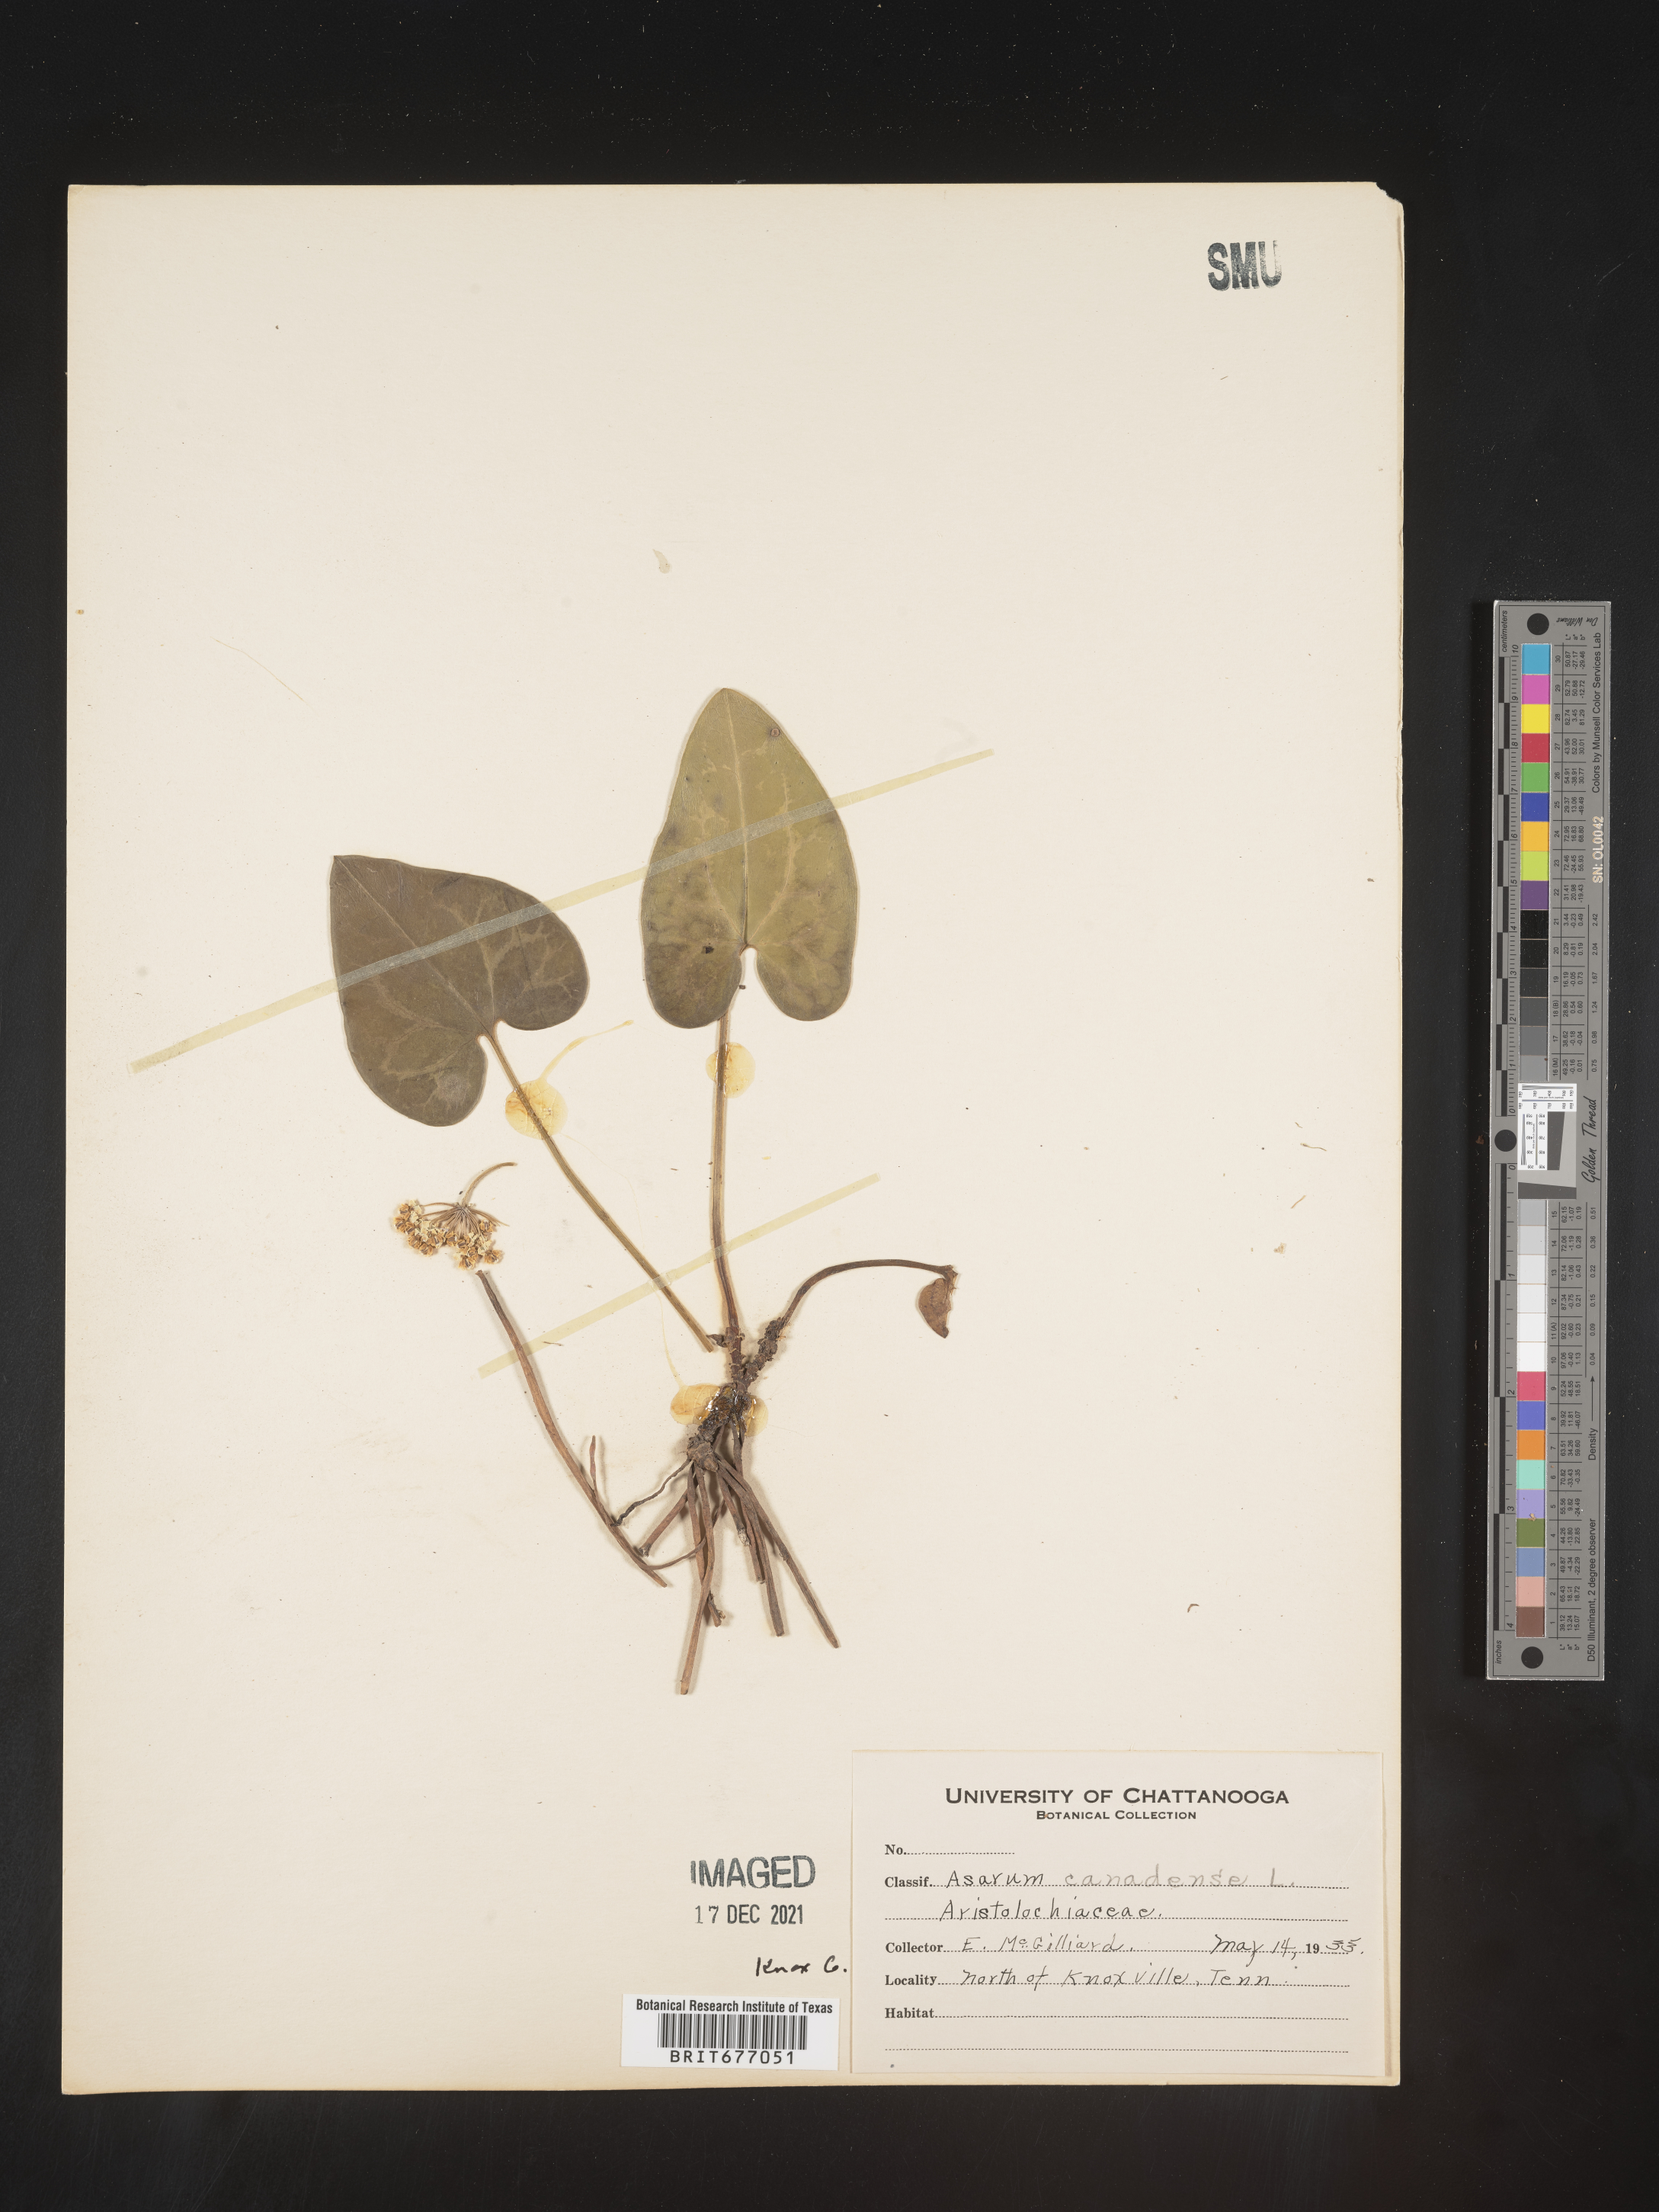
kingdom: Plantae
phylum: Tracheophyta
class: Magnoliopsida
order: Piperales
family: Aristolochiaceae
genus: Asarum
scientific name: Asarum
